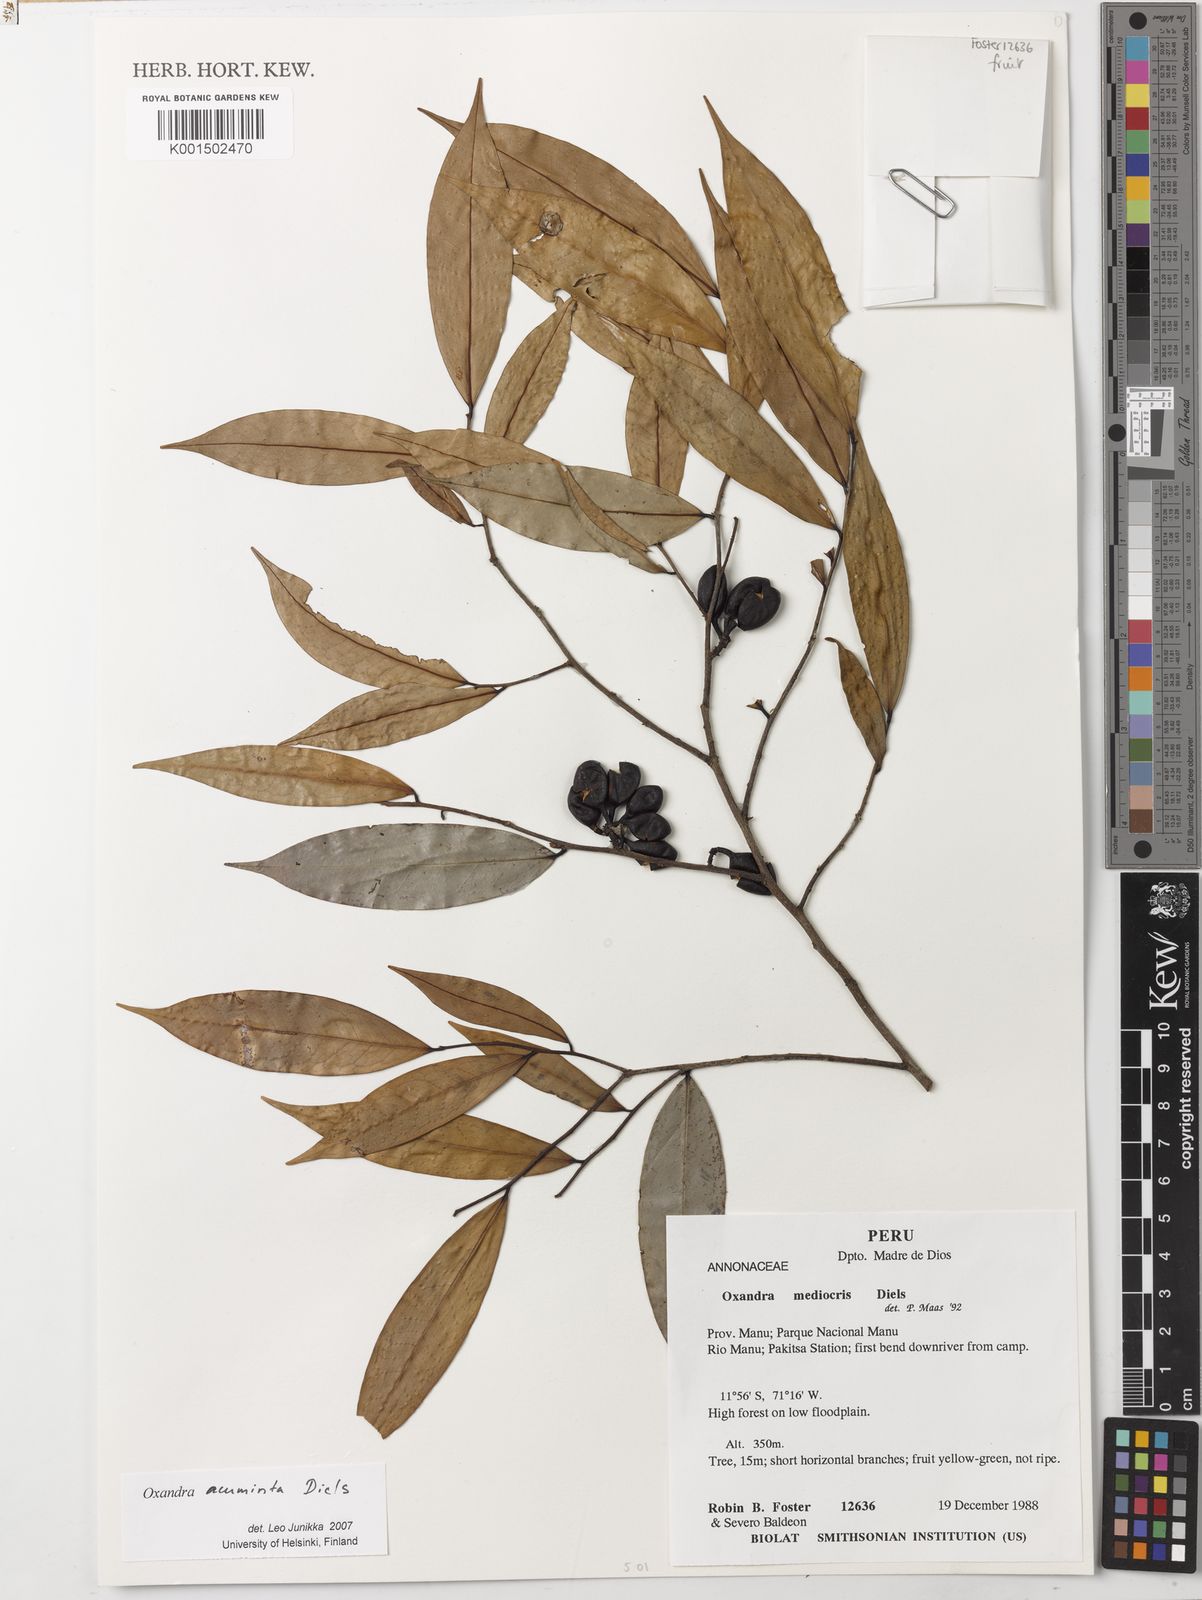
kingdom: Plantae
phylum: Tracheophyta
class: Magnoliopsida
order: Magnoliales
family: Annonaceae
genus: Oxandra
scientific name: Oxandra mediocris
